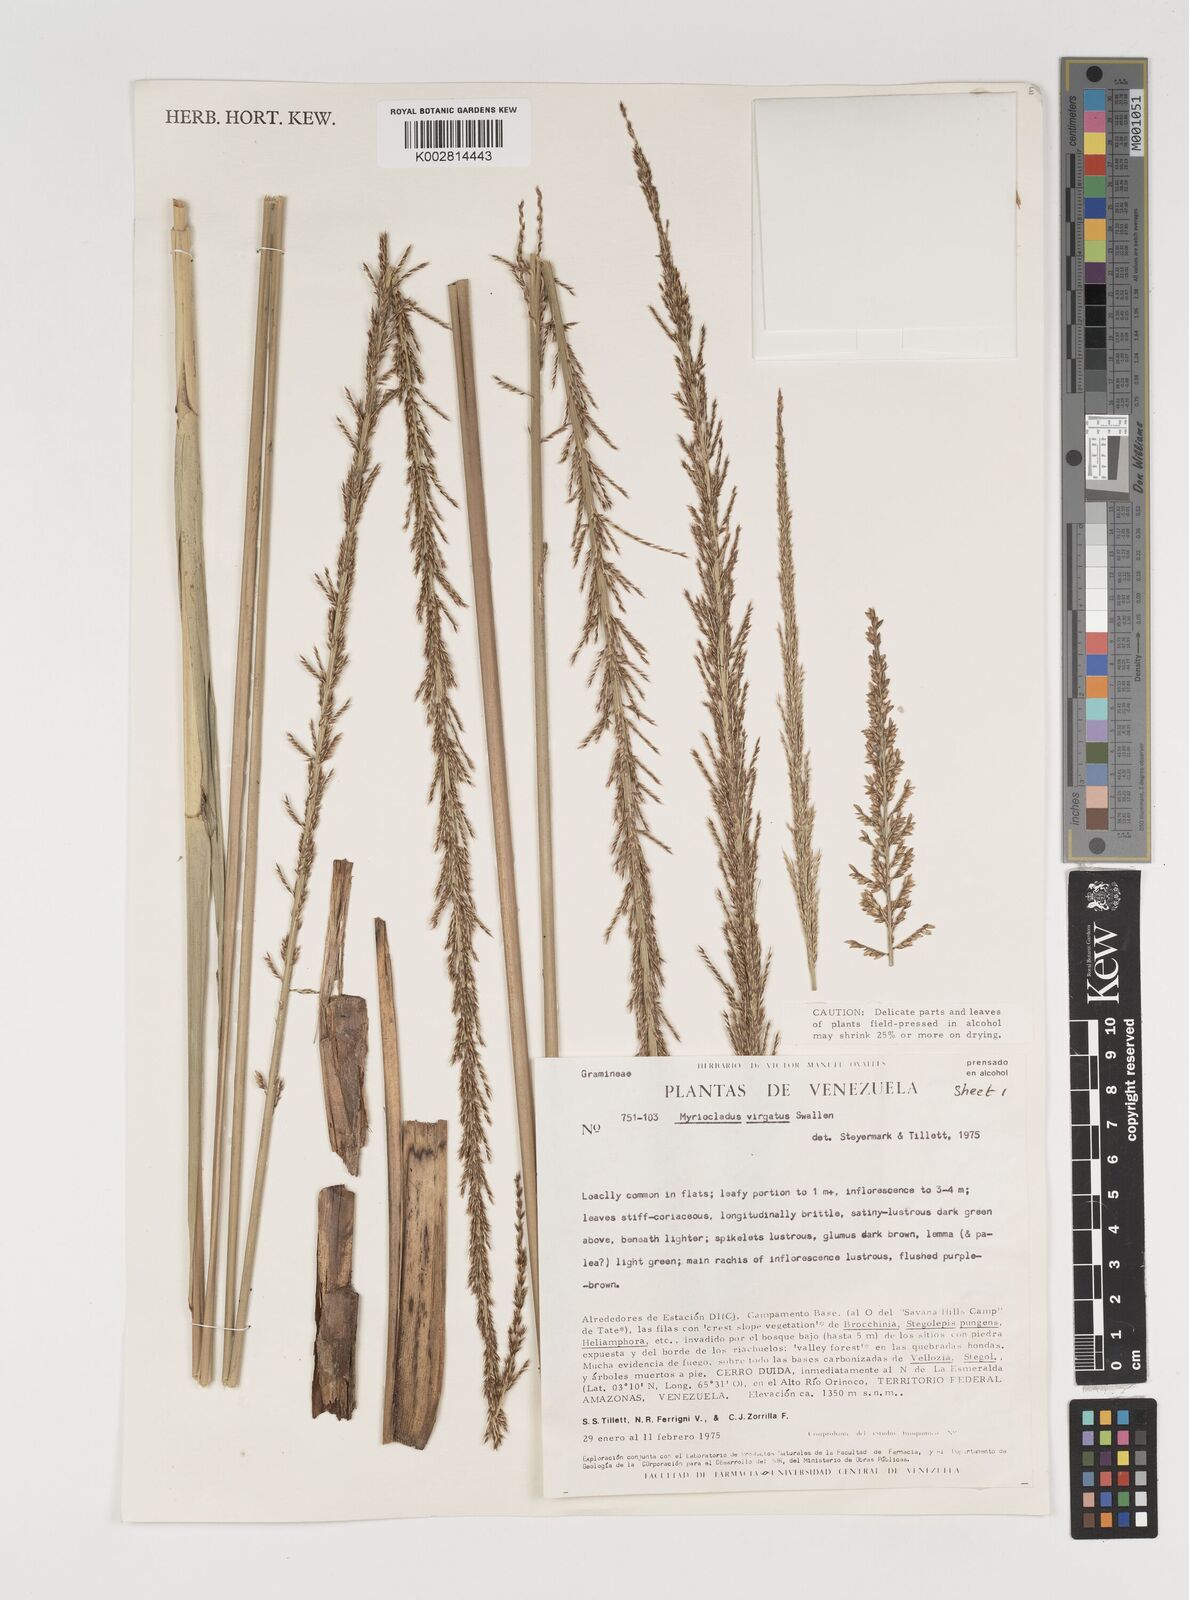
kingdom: Plantae
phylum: Tracheophyta
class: Liliopsida
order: Poales
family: Poaceae
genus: Myriocladus
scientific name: Myriocladus virgatus
